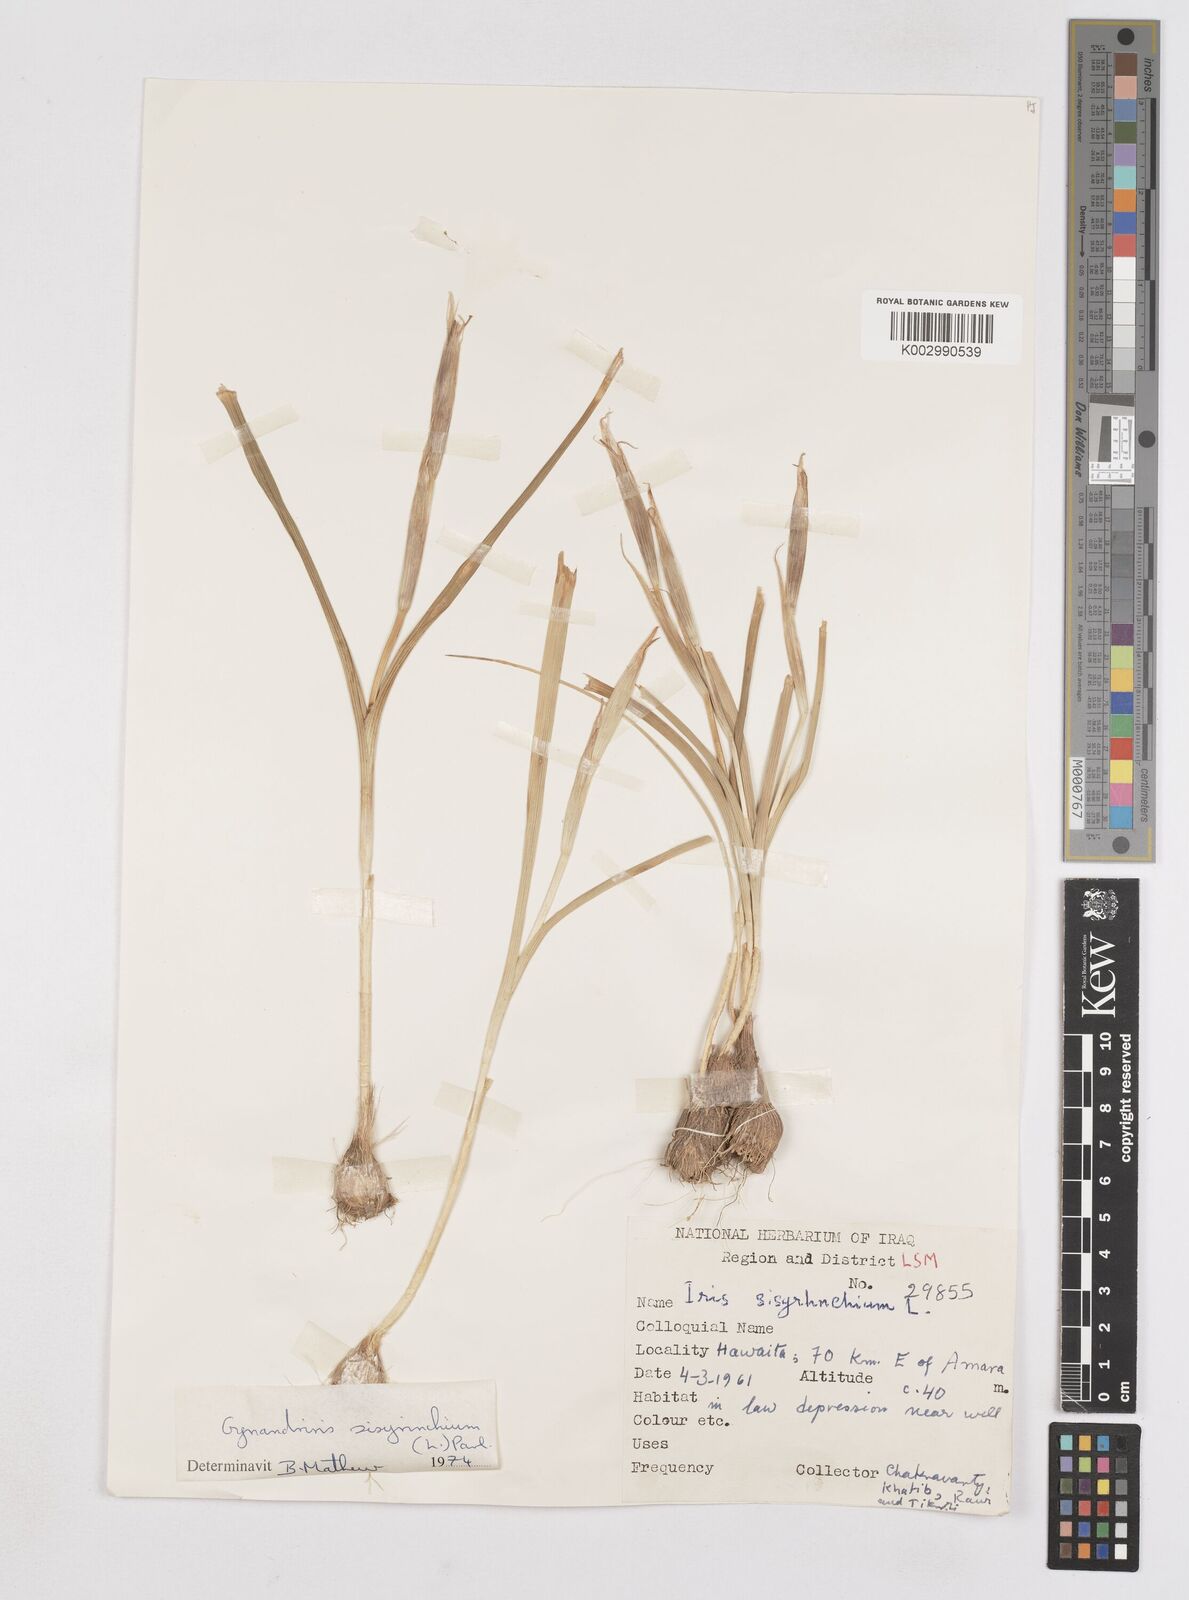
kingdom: Plantae
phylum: Tracheophyta
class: Liliopsida
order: Asparagales
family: Iridaceae
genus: Moraea
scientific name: Moraea sisyrinchium
